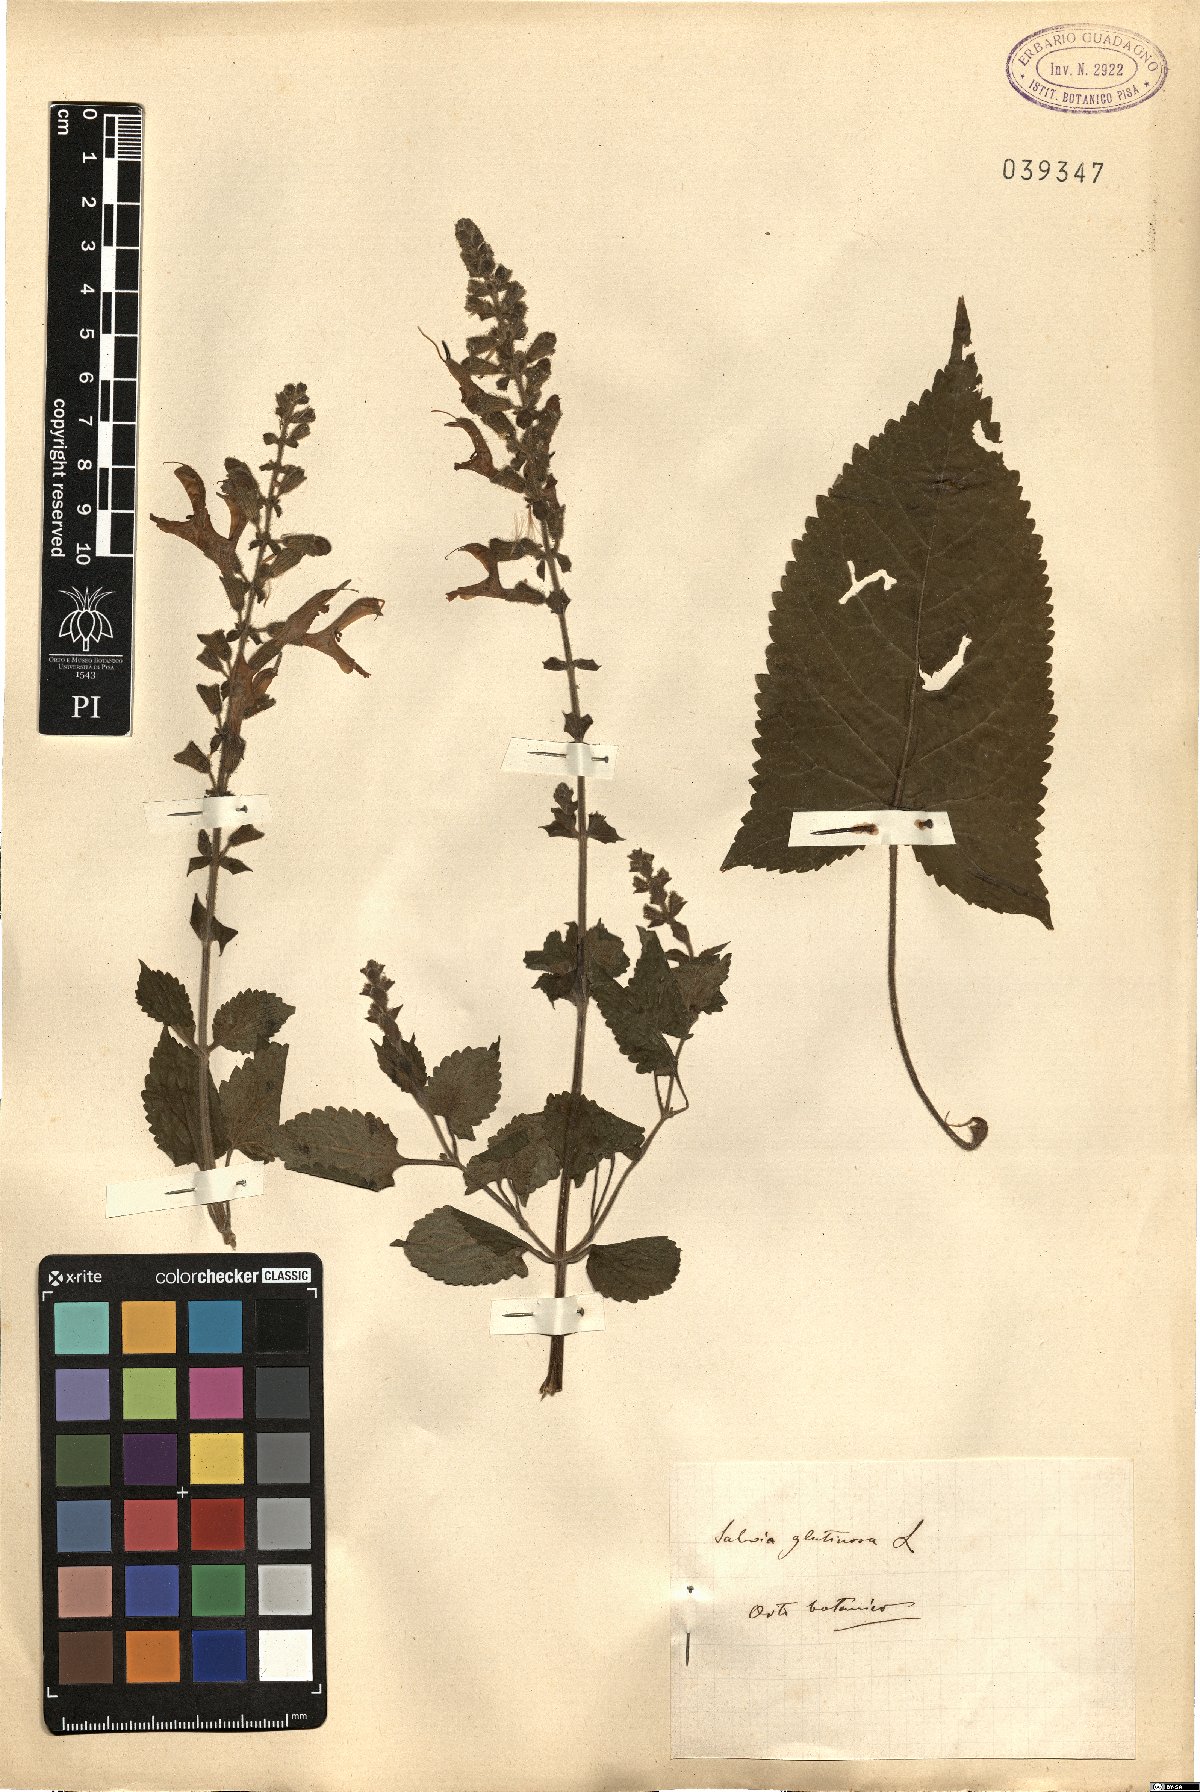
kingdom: Plantae
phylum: Tracheophyta
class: Magnoliopsida
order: Lamiales
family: Lamiaceae
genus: Salvia
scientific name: Salvia glutinosa
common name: Sticky clary
